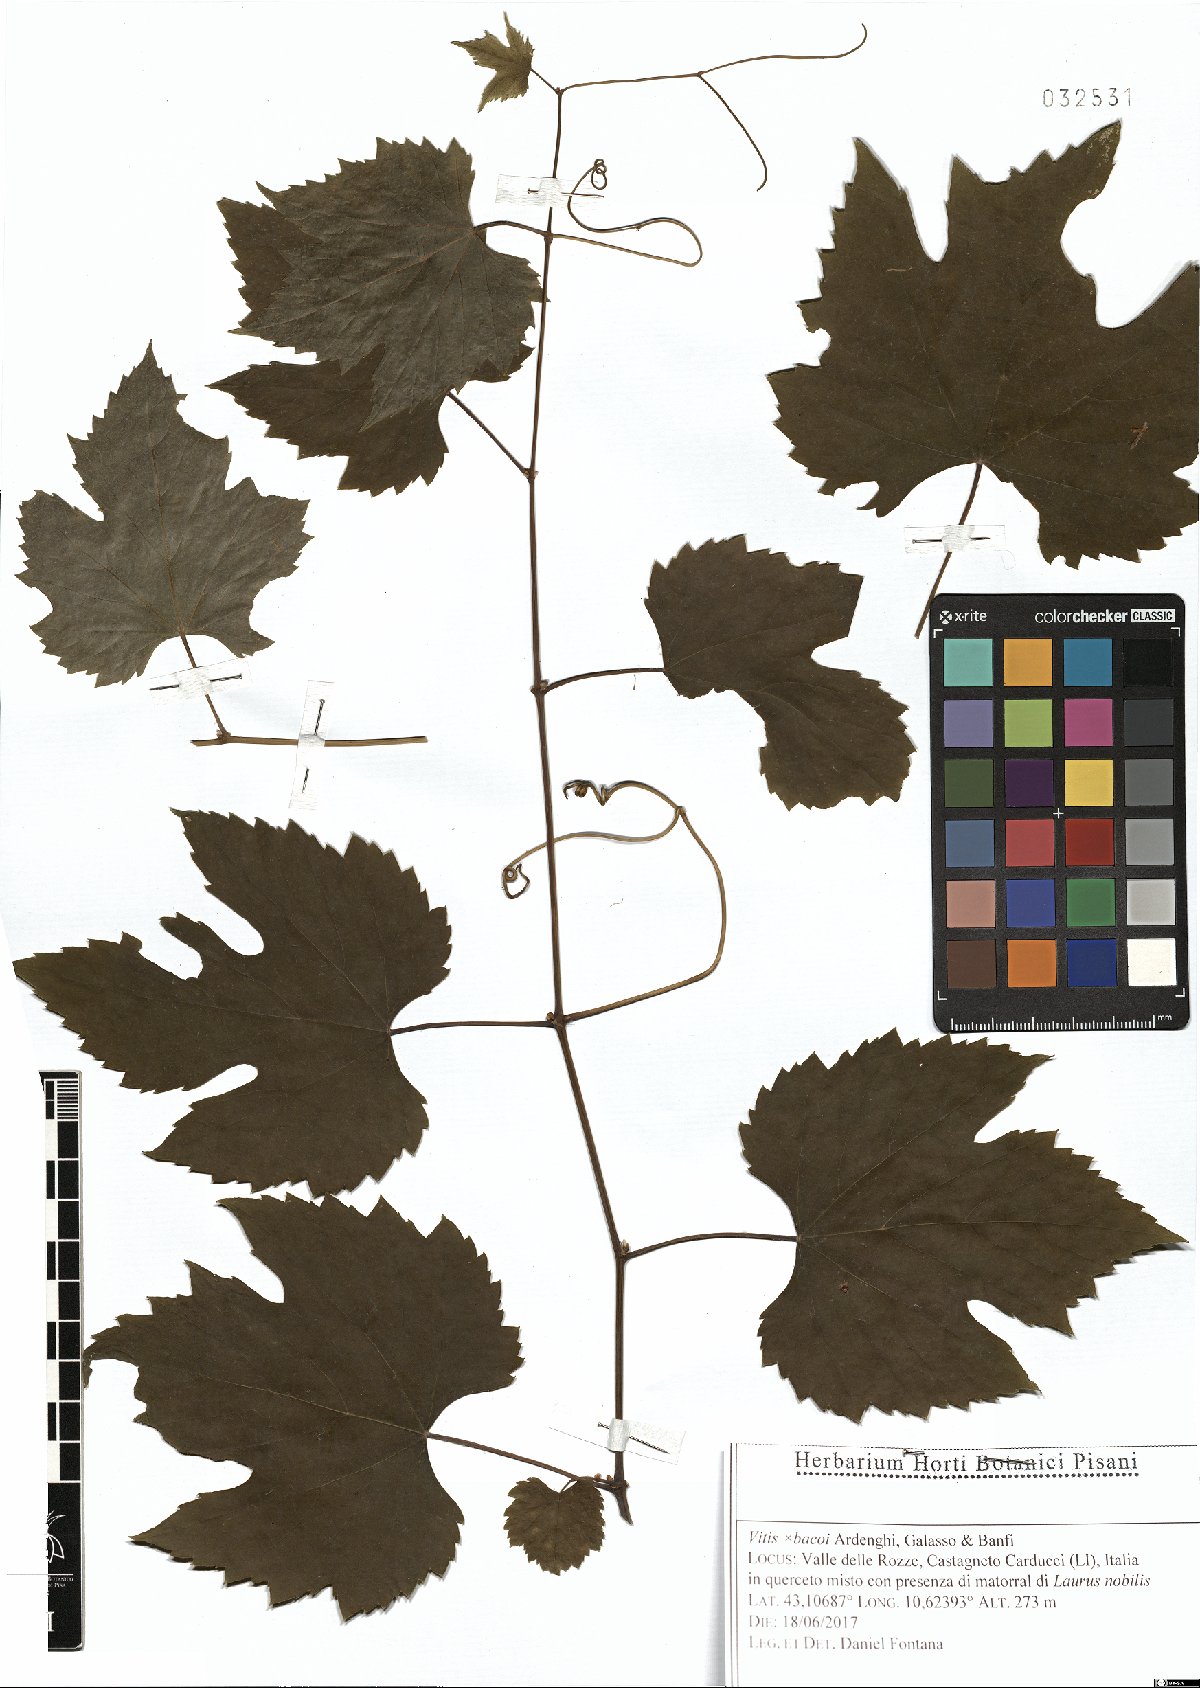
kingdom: Plantae
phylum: Tracheophyta
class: Magnoliopsida
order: Vitales
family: Vitaceae
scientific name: Vitaceae
